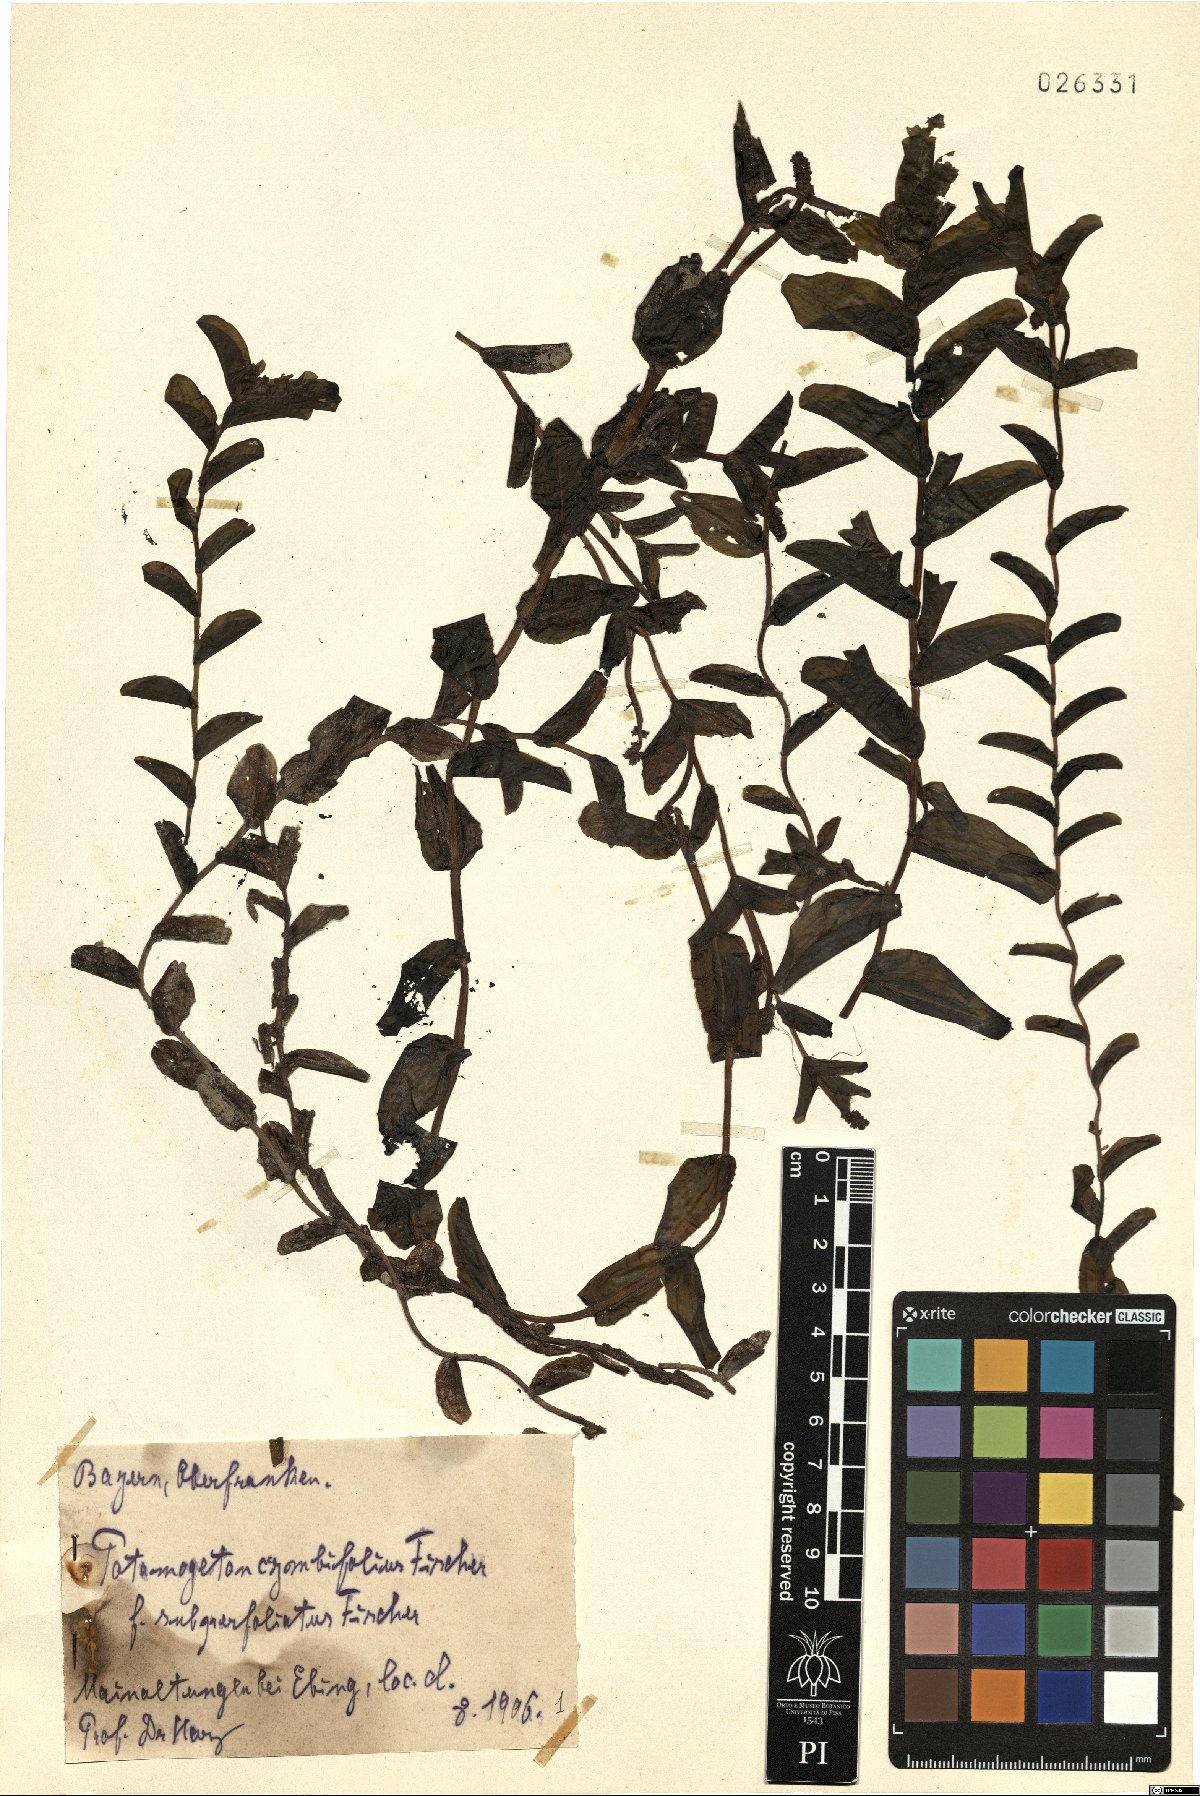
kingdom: Plantae
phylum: Tracheophyta
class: Liliopsida
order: Alismatales
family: Potamogetonaceae
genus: Potamogeton
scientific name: Potamogeton cooperi
